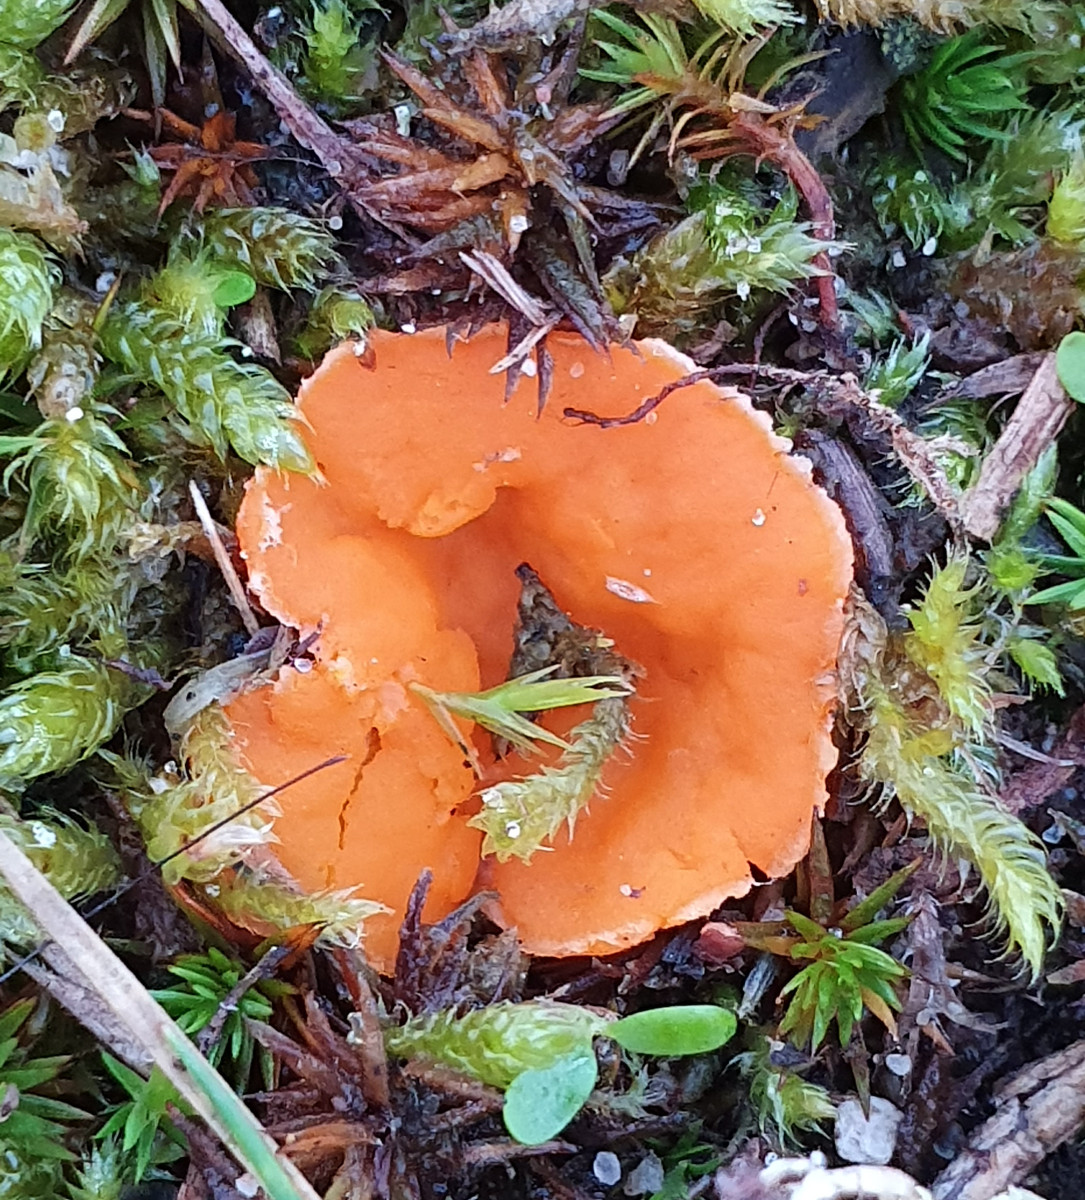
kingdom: Fungi
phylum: Ascomycota
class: Pezizomycetes
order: Pezizales
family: Pyronemataceae
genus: Neottiella
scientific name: Neottiella
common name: mosbæger
